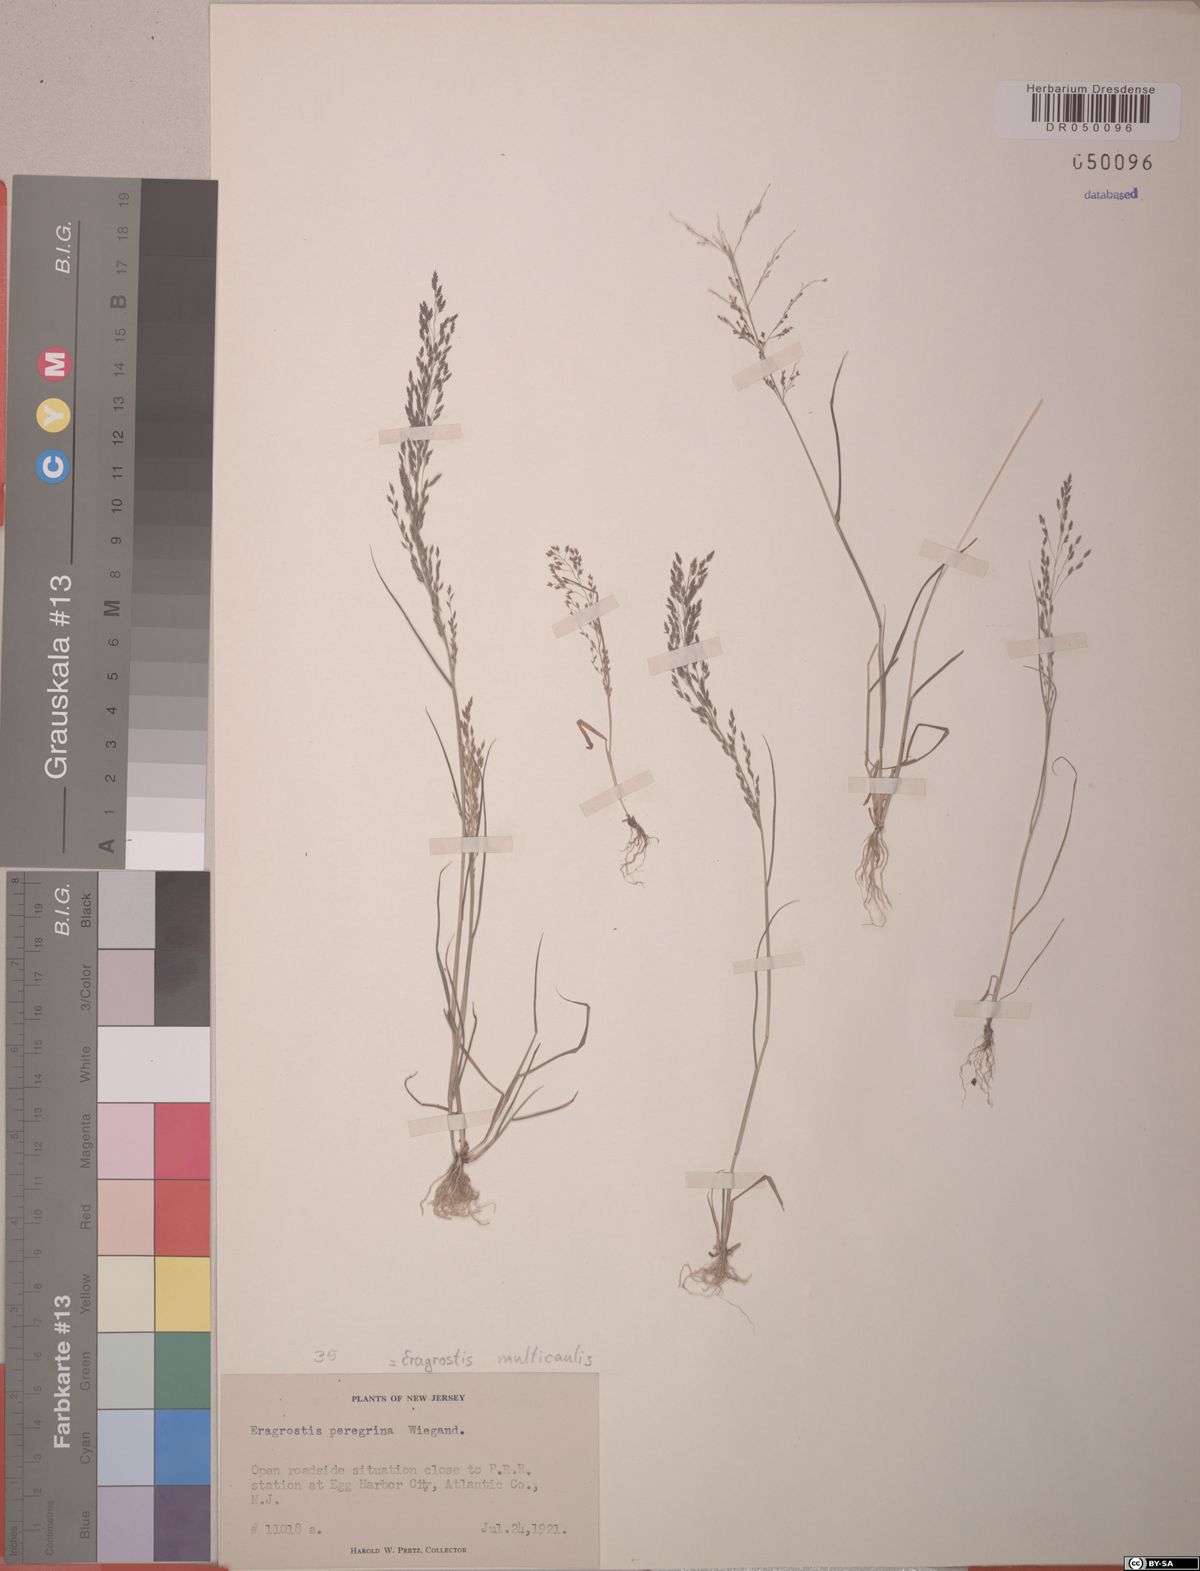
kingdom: Plantae
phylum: Tracheophyta
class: Liliopsida
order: Poales
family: Poaceae
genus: Eragrostis
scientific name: Eragrostis multicaulis
